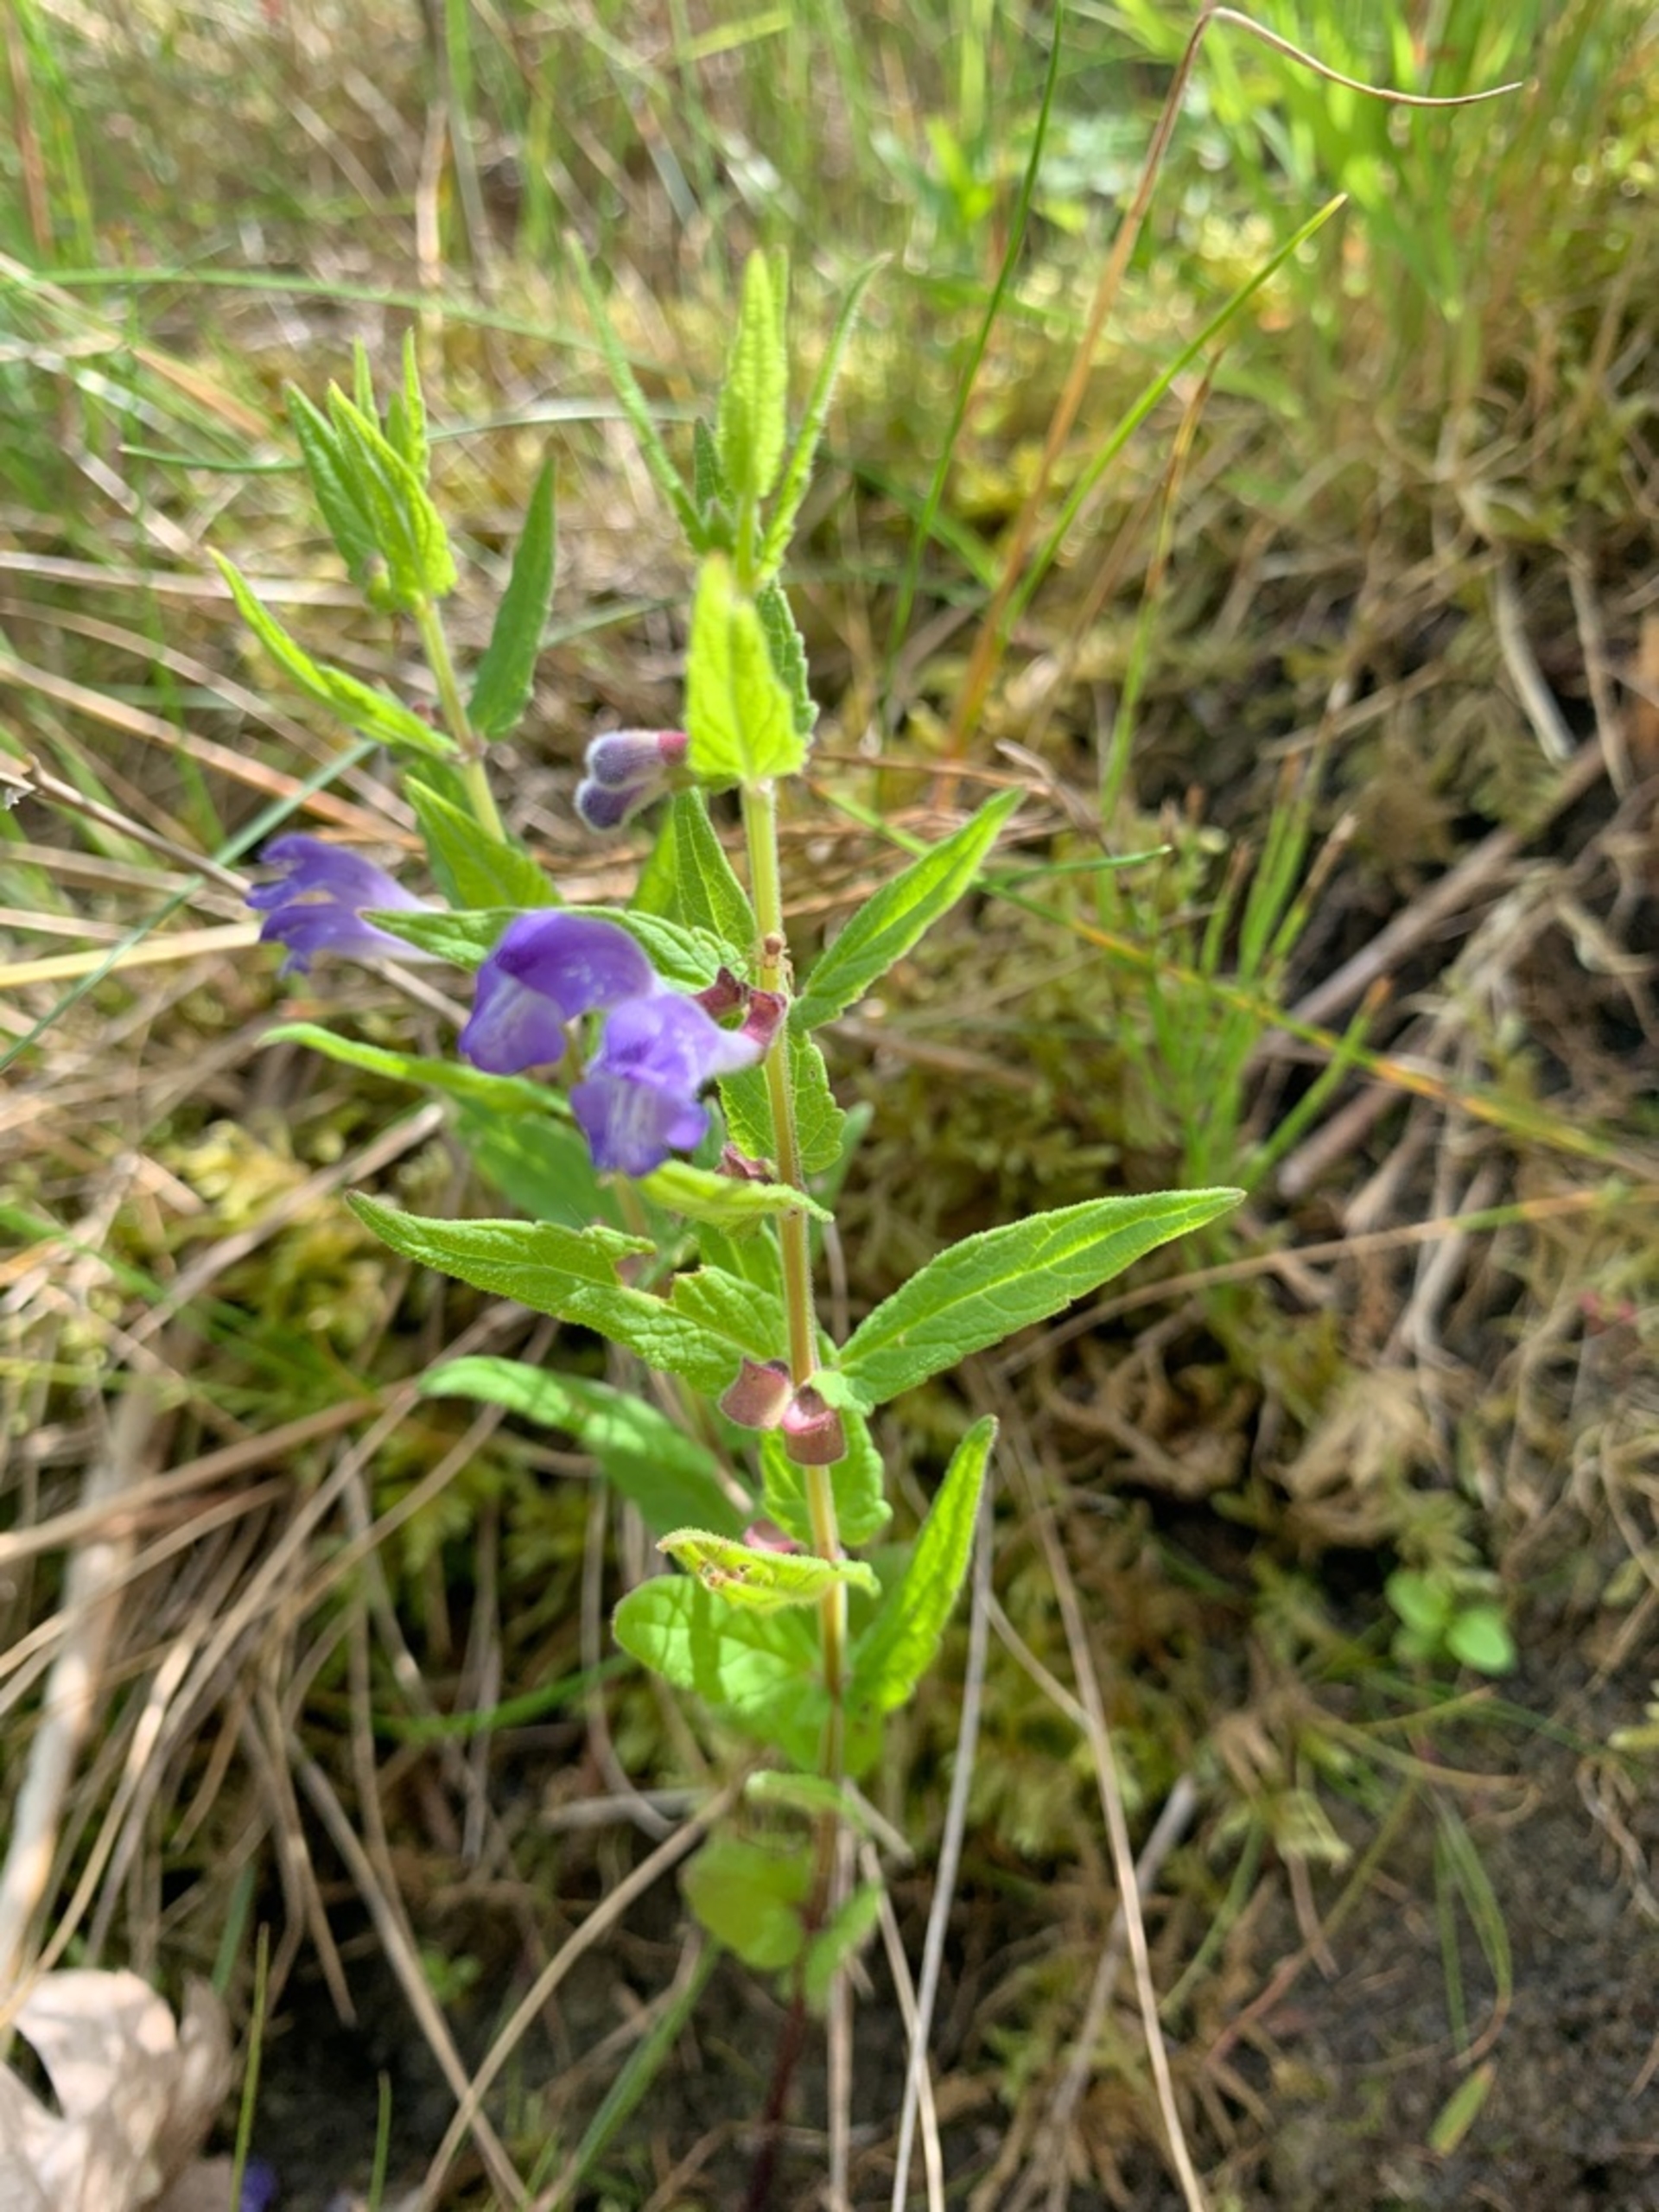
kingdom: Plantae
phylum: Tracheophyta
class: Magnoliopsida
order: Lamiales
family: Lamiaceae
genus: Scutellaria
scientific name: Scutellaria galericulata
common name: Almindelig skjolddrager
